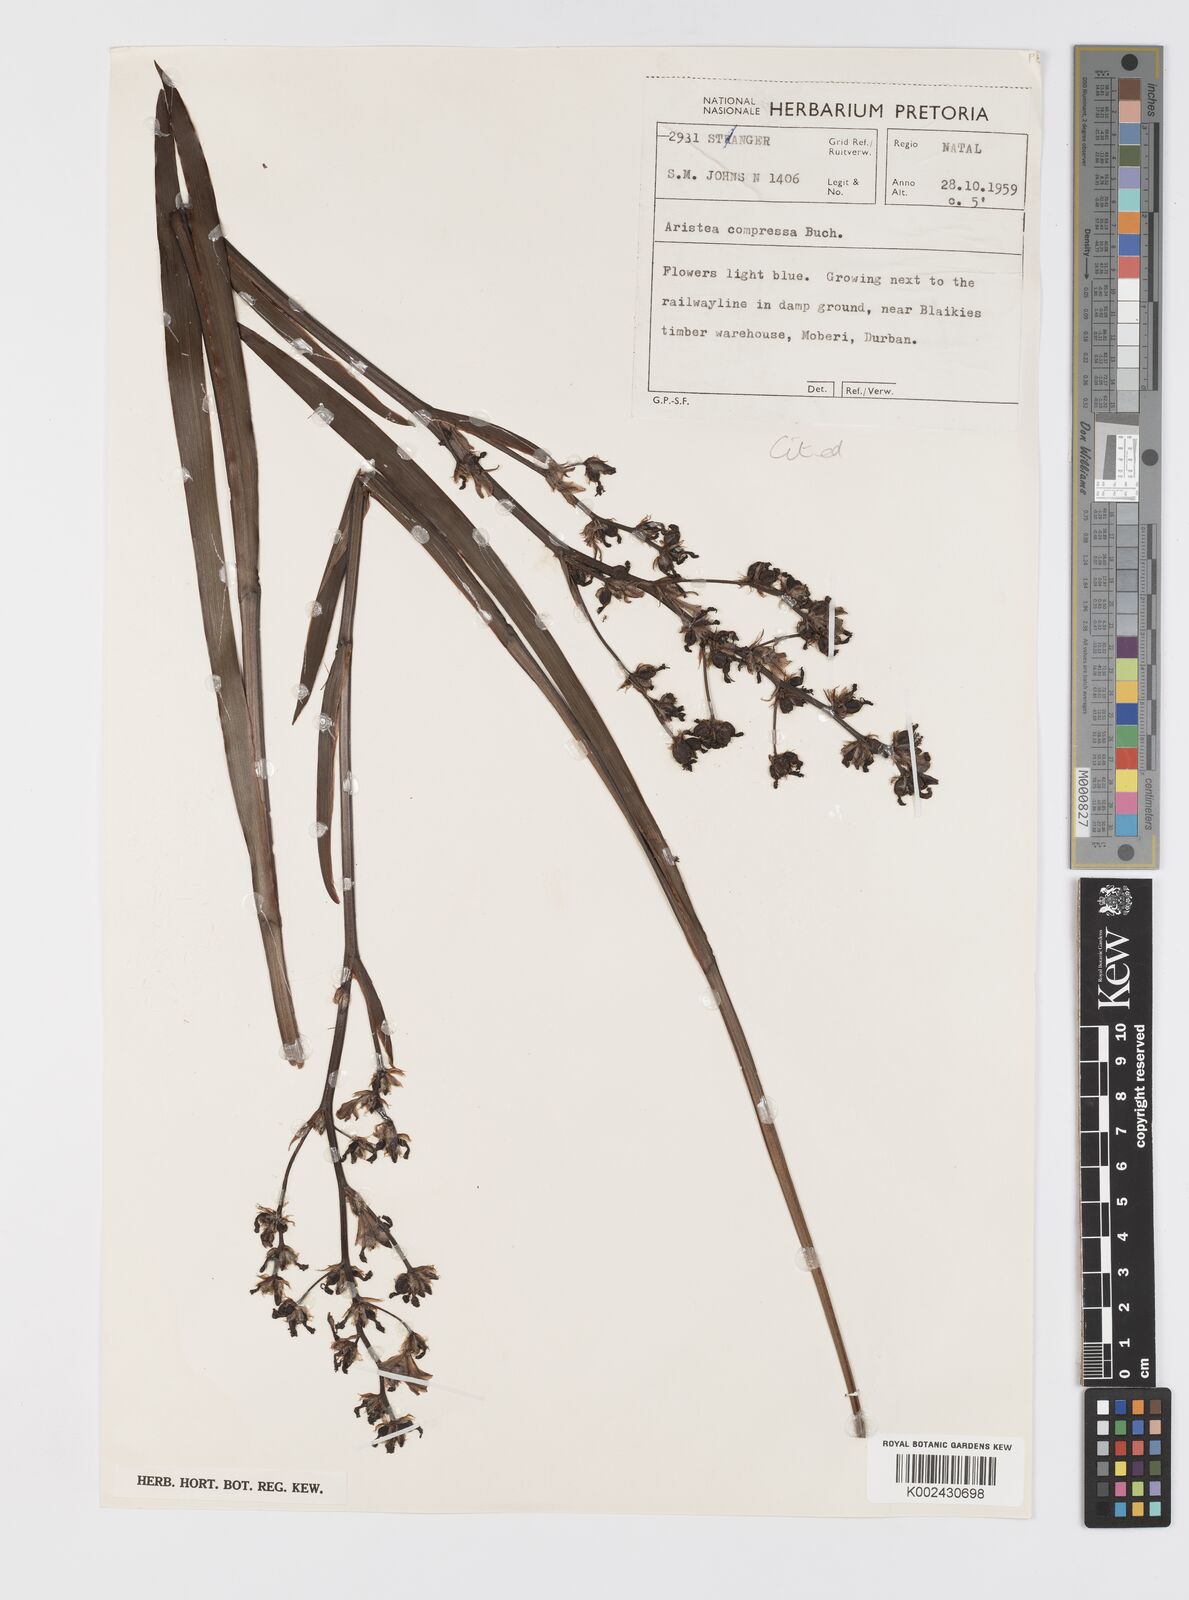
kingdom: Plantae
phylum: Tracheophyta
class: Liliopsida
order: Asparagales
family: Iridaceae
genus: Aristea
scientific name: Aristea compressa
